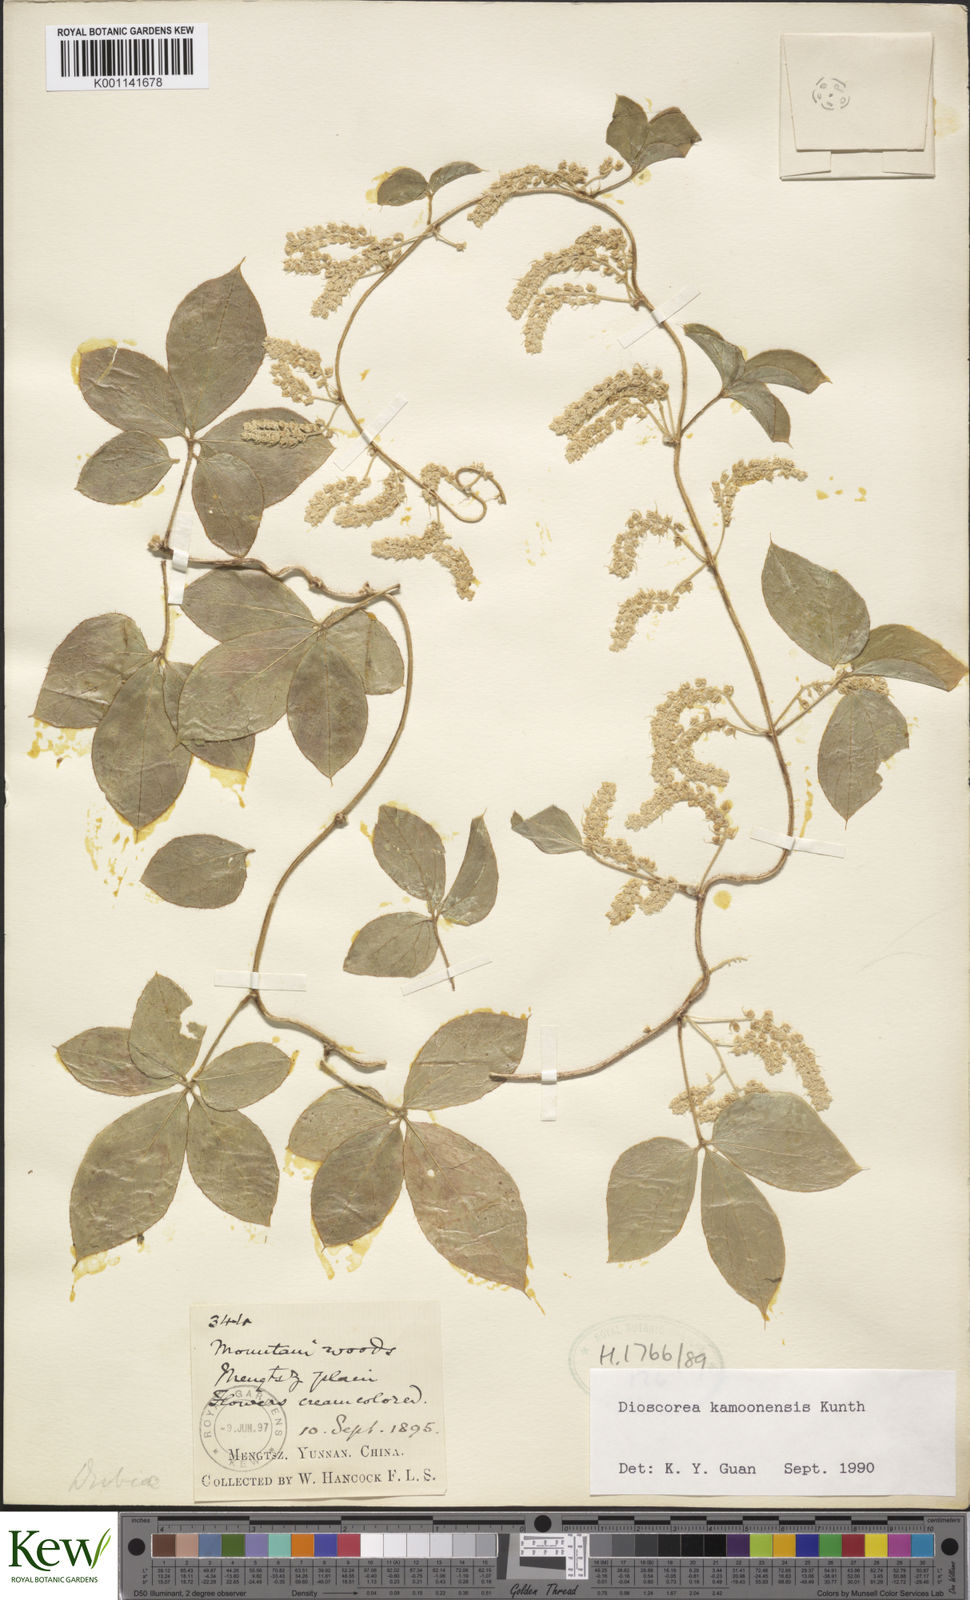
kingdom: Plantae
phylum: Tracheophyta
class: Liliopsida
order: Dioscoreales
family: Dioscoreaceae
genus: Dioscorea
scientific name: Dioscorea kamoonensis
